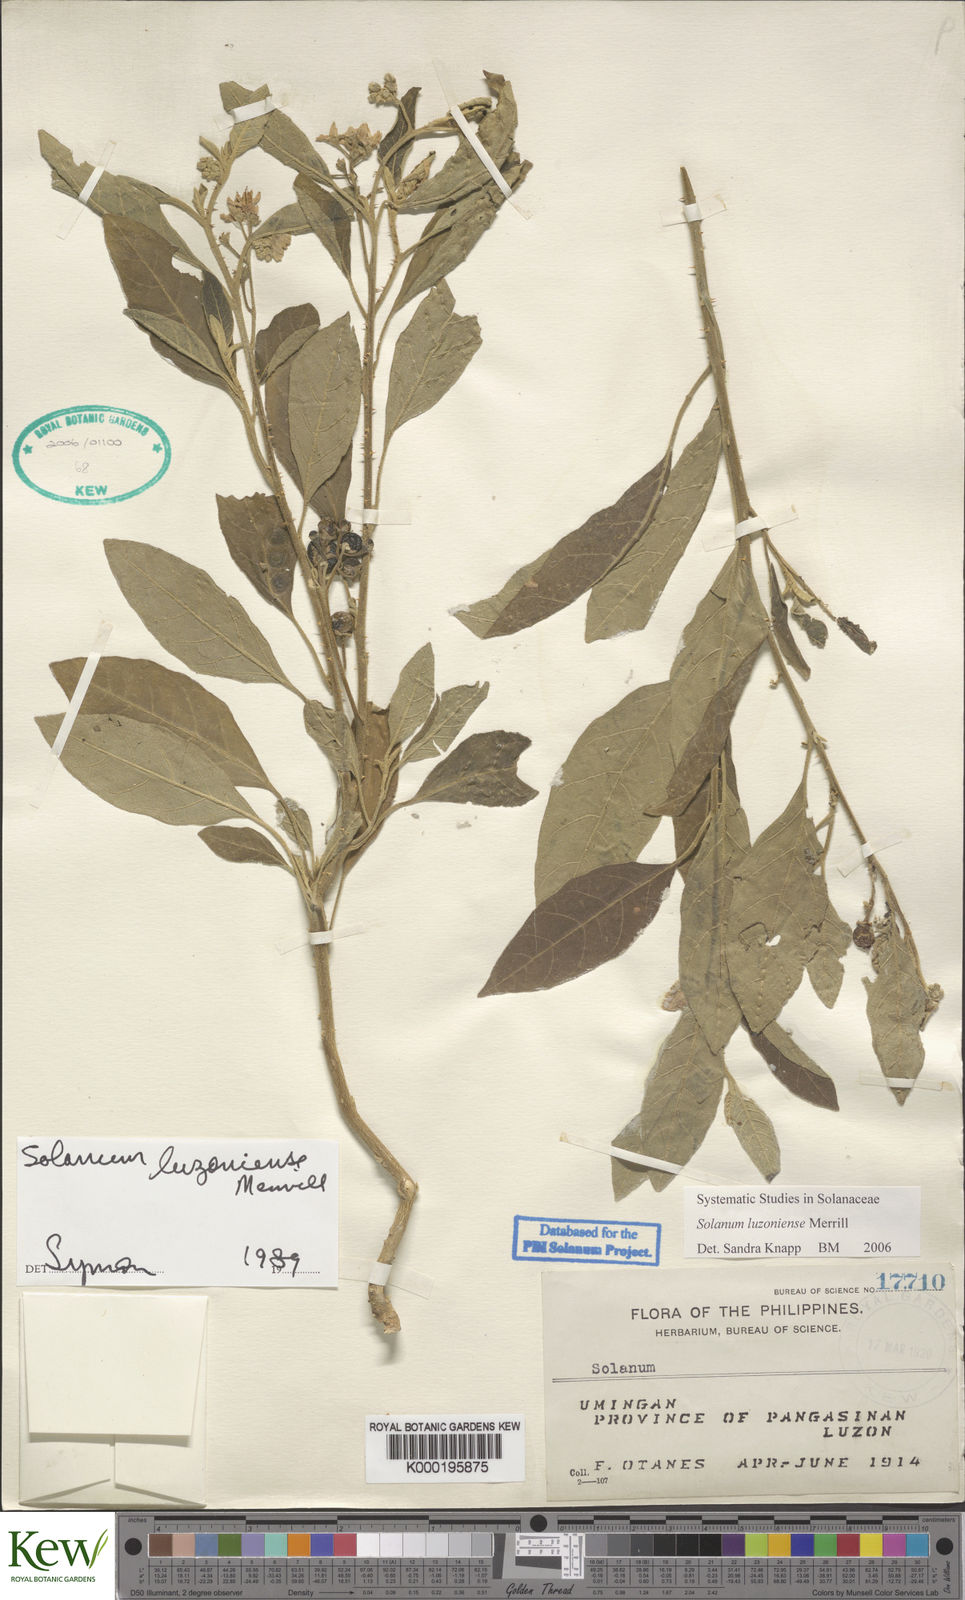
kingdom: Plantae
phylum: Tracheophyta
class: Magnoliopsida
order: Solanales
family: Solanaceae
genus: Solanum
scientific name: Solanum retrorsum
